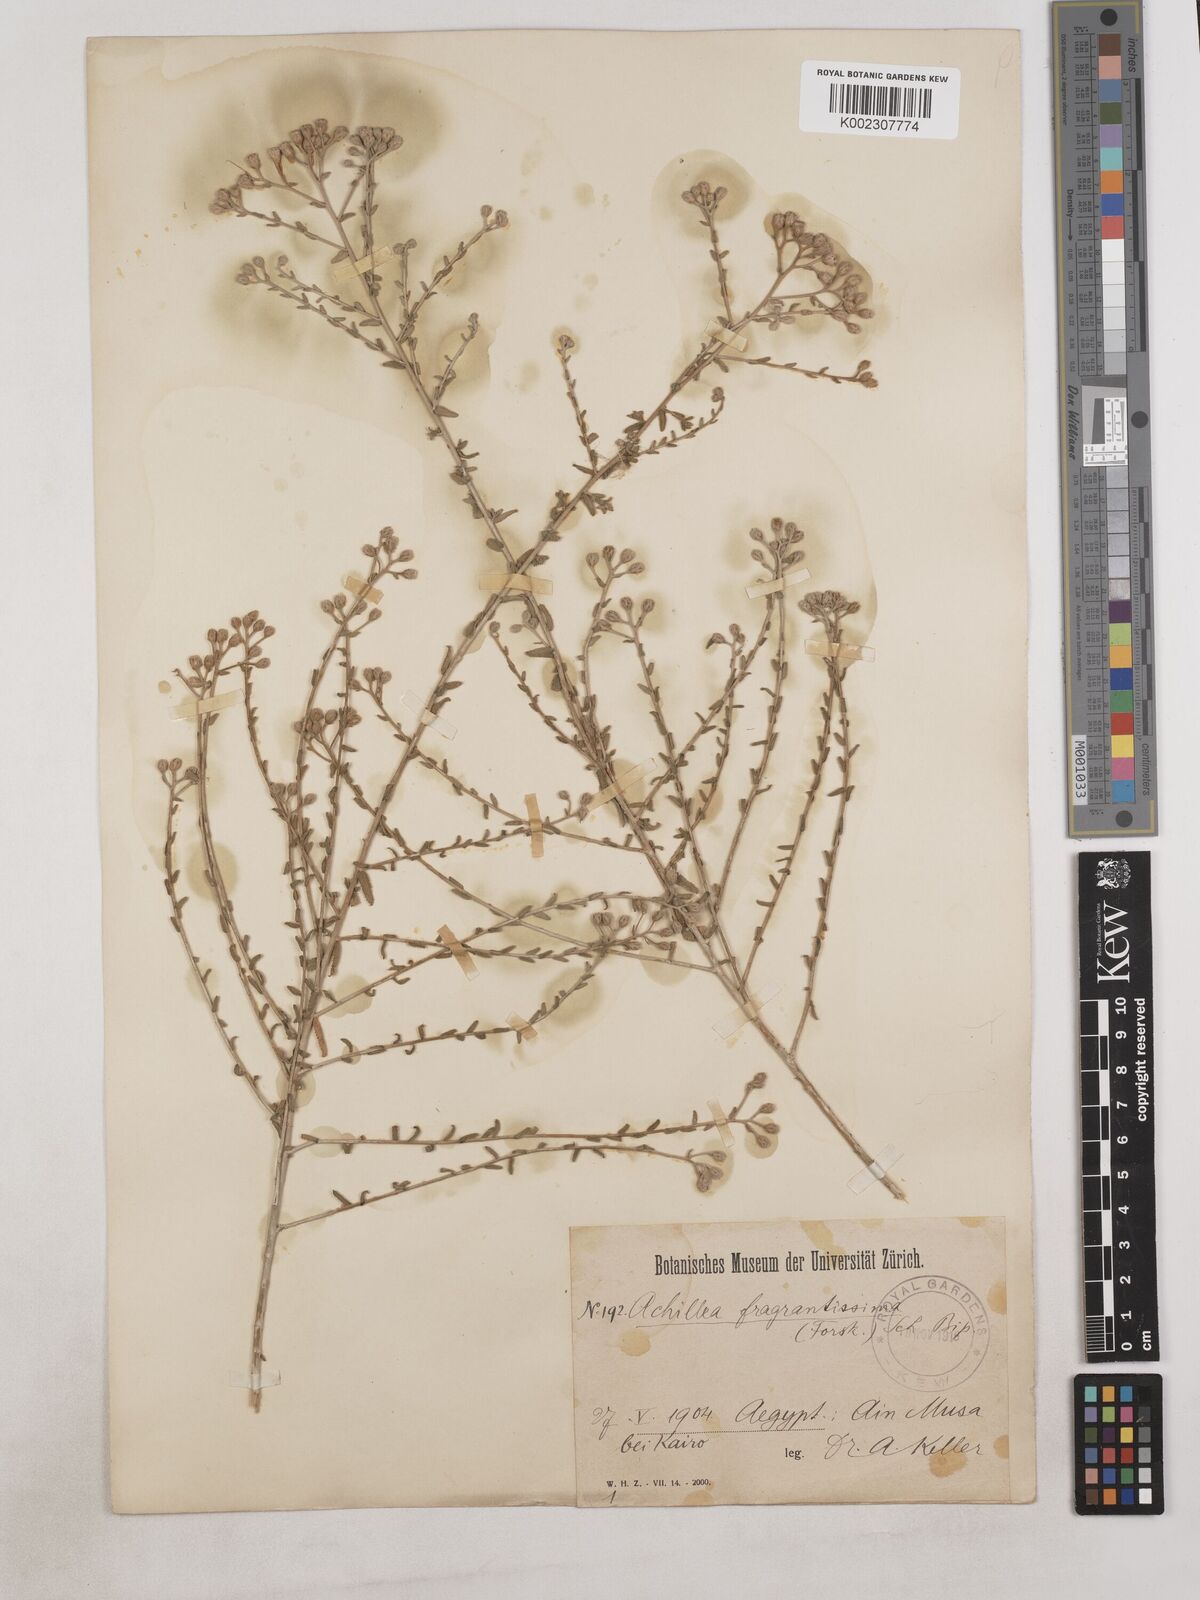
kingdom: Plantae
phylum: Tracheophyta
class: Magnoliopsida
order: Asterales
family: Asteraceae
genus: Achillea
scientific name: Achillea fragrantissima
